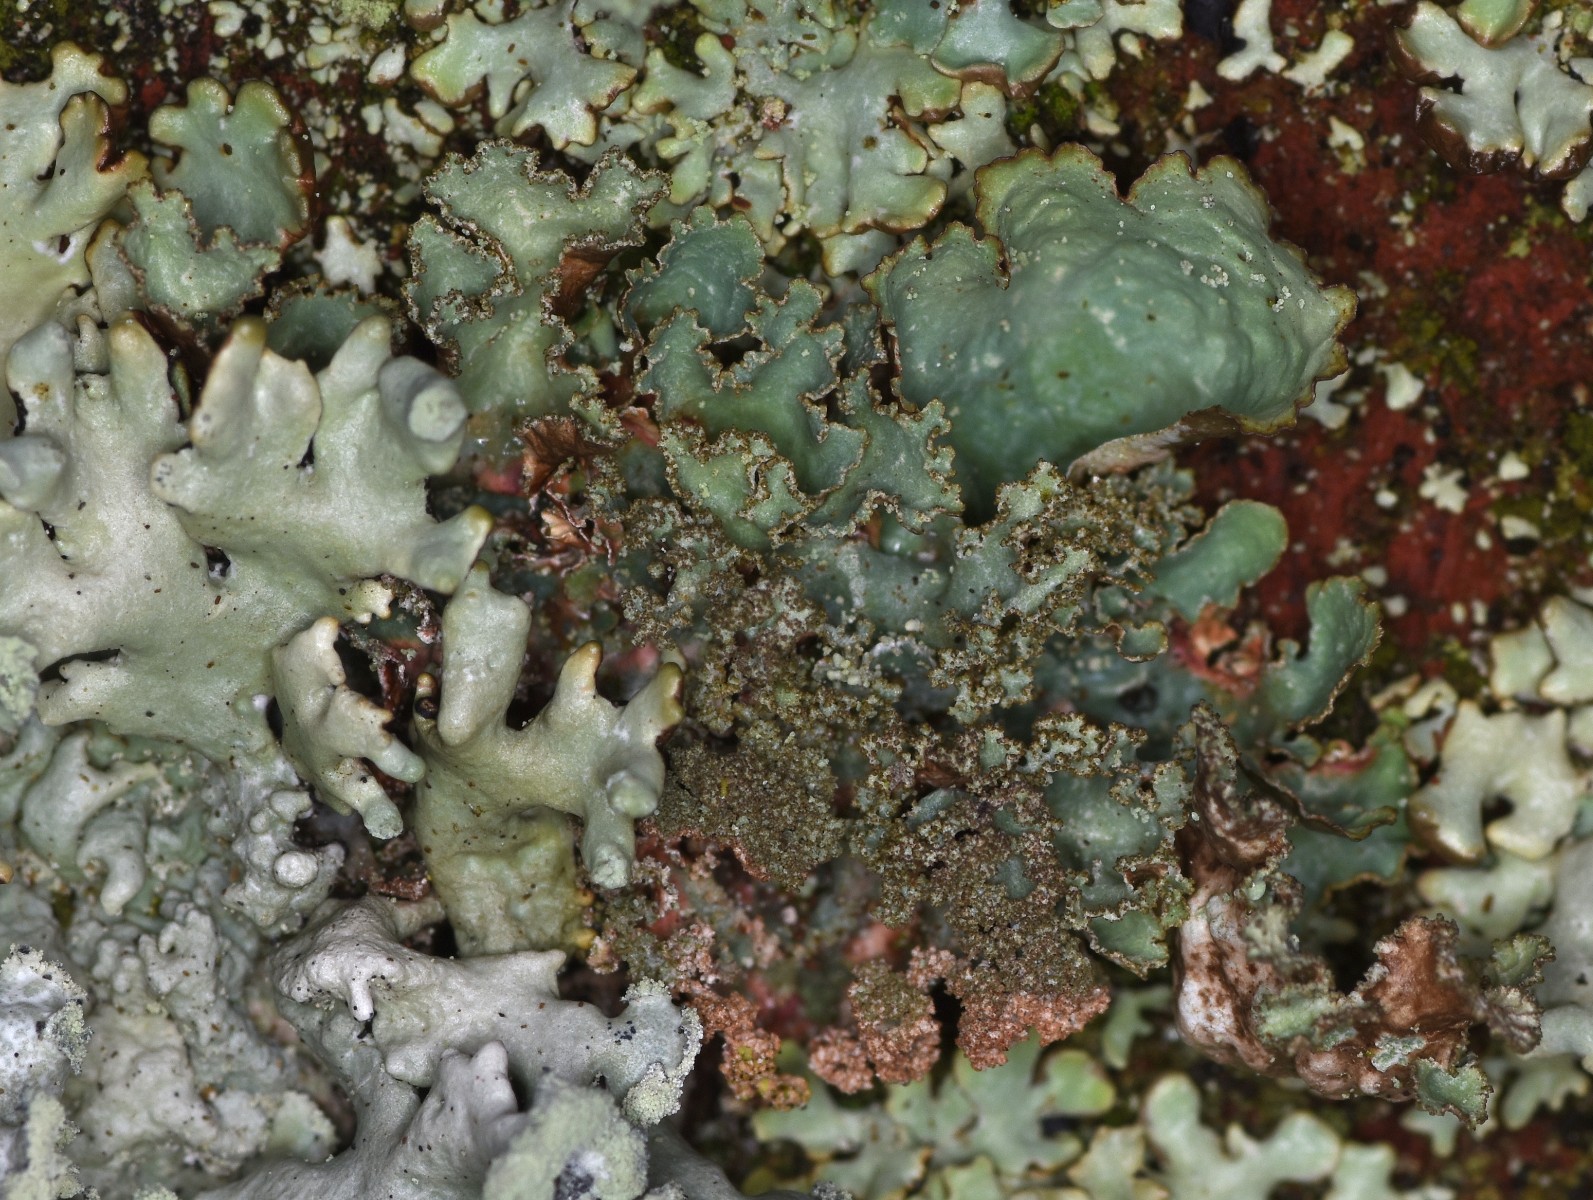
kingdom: Fungi
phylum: Ascomycota
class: Lecanoromycetes
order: Lecanorales
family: Parmeliaceae
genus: Platismatia
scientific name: Platismatia glauca
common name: blågrå papirlav
